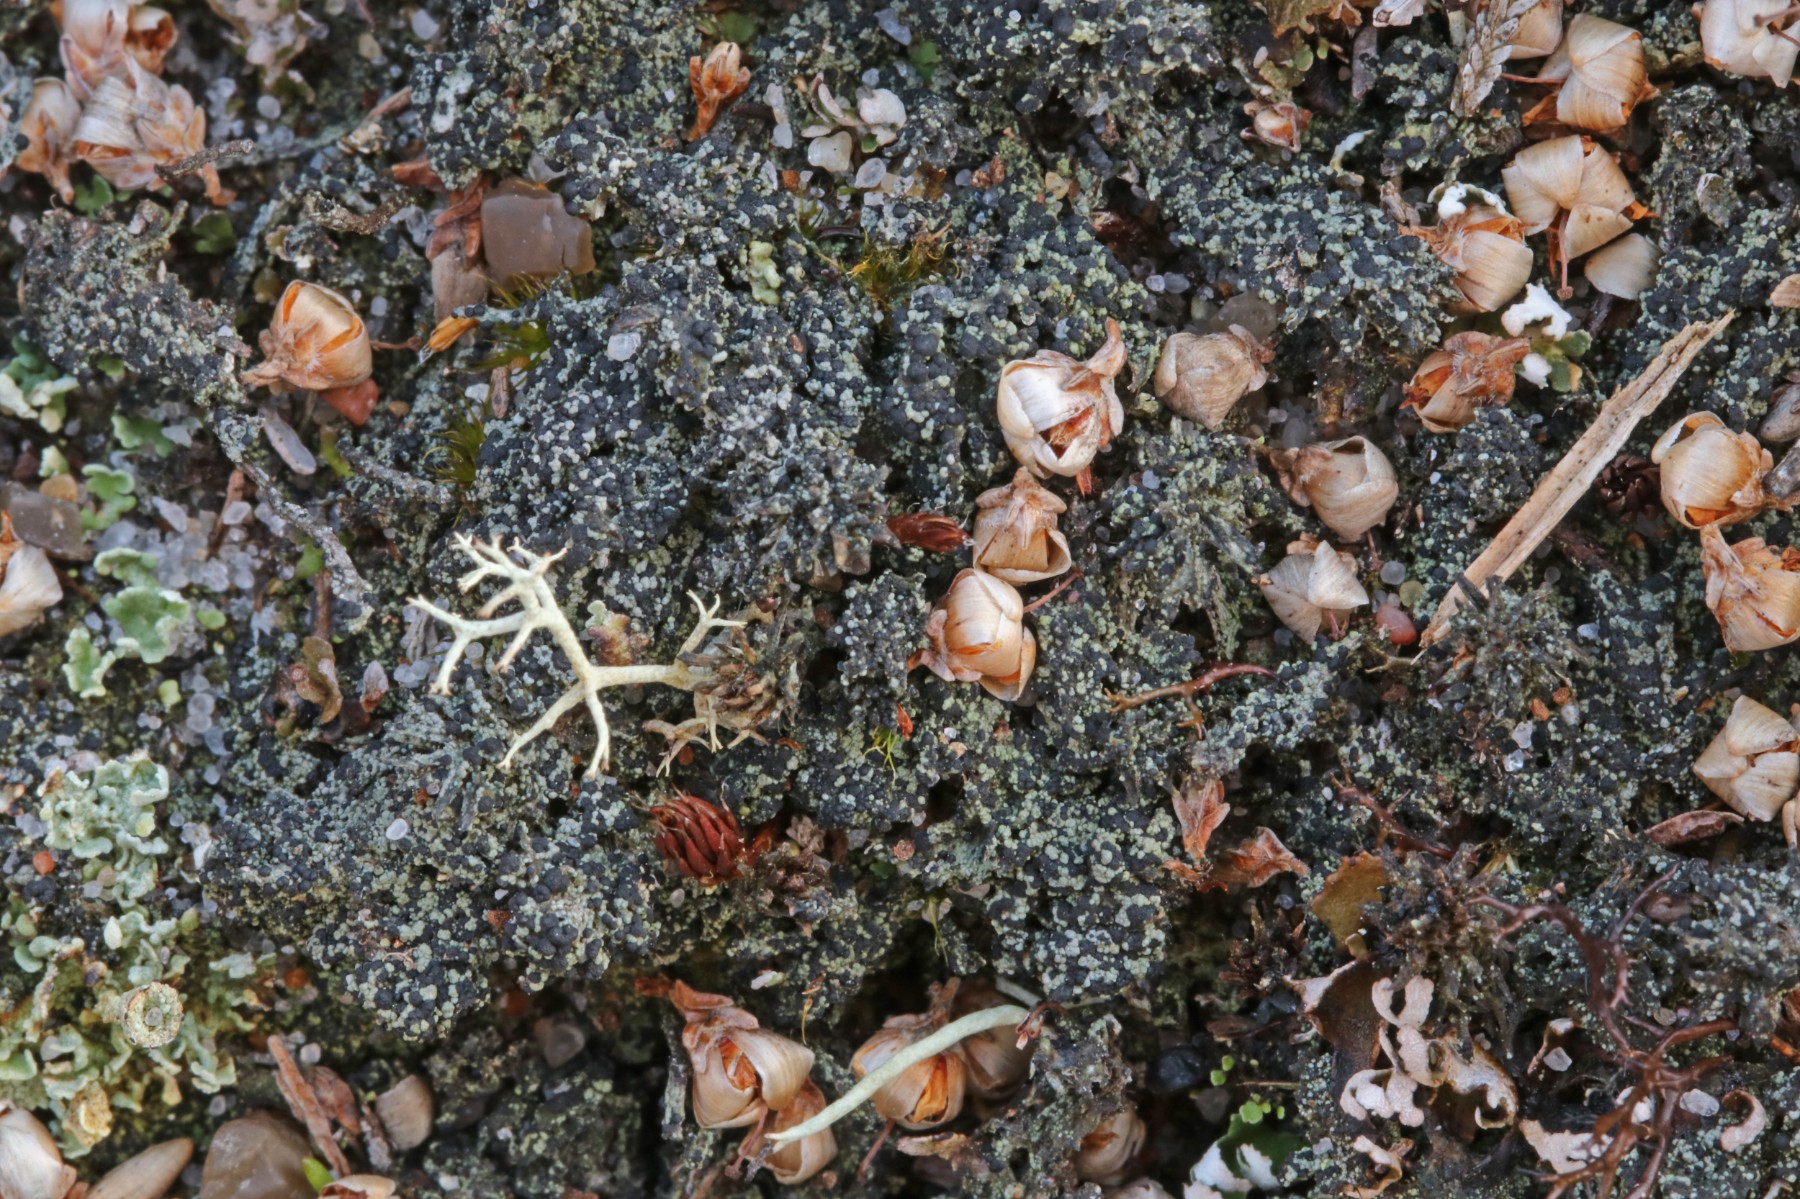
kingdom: Fungi
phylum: Ascomycota
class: Lecanoromycetes
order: Lecanorales
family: Byssolomataceae
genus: Micarea
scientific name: Micarea lignaria
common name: tørve-knaplav
